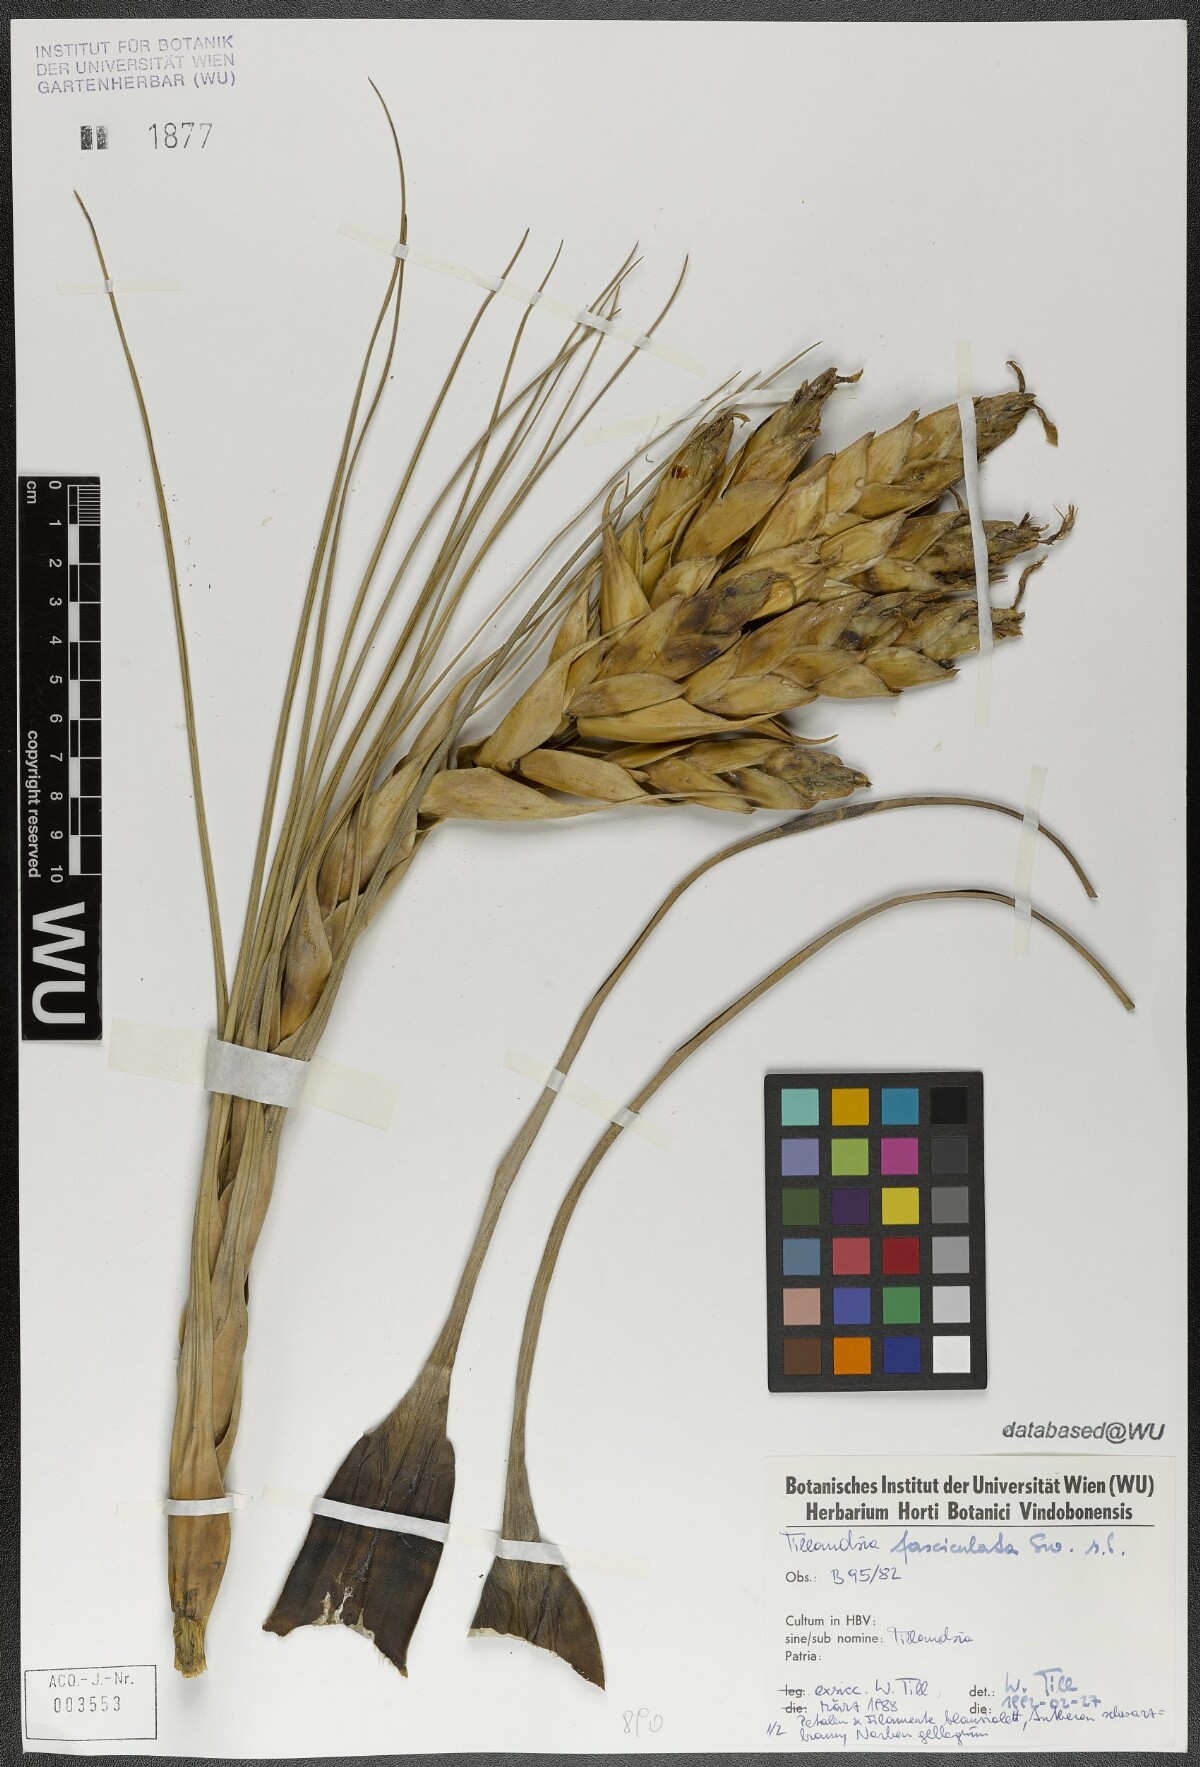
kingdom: Plantae
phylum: Tracheophyta
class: Liliopsida
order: Poales
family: Bromeliaceae
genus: Tillandsia
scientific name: Tillandsia fasciculata
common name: Giant airplant
